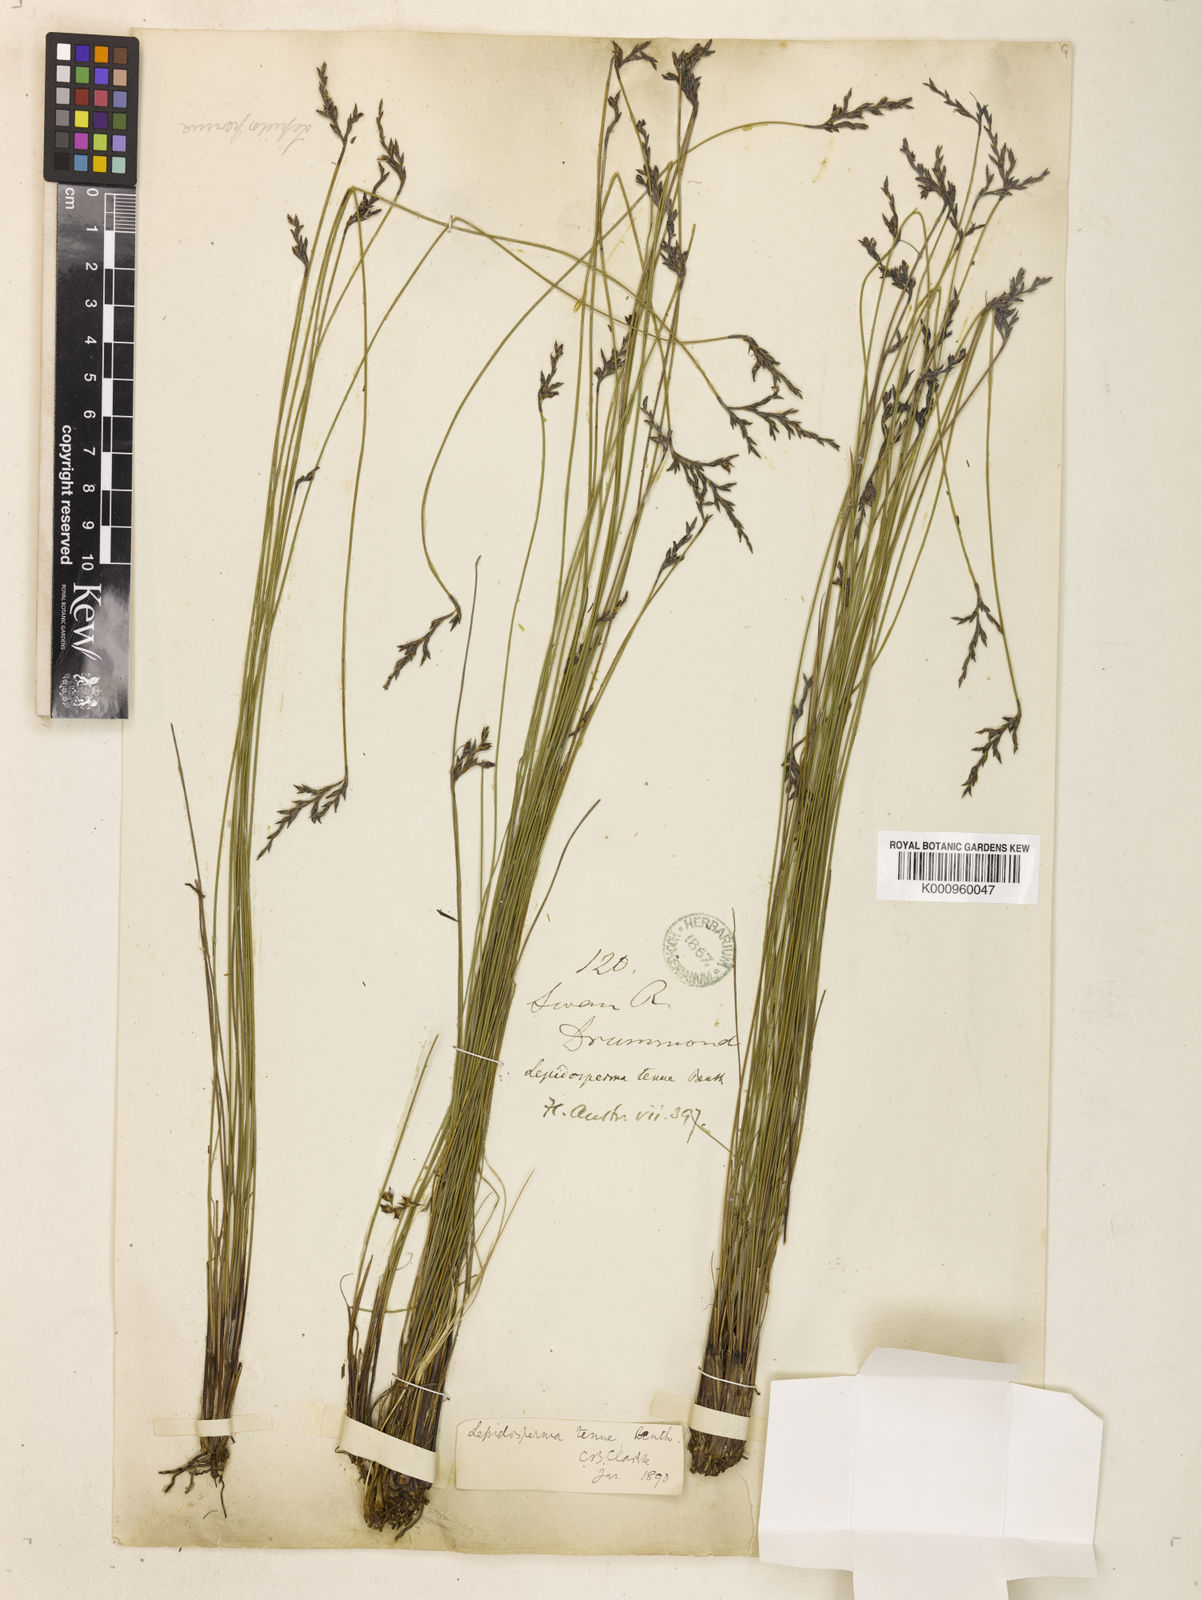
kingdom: Plantae
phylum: Tracheophyta
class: Liliopsida
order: Poales
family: Cyperaceae
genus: Lepidosperma
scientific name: Lepidosperma tenue
